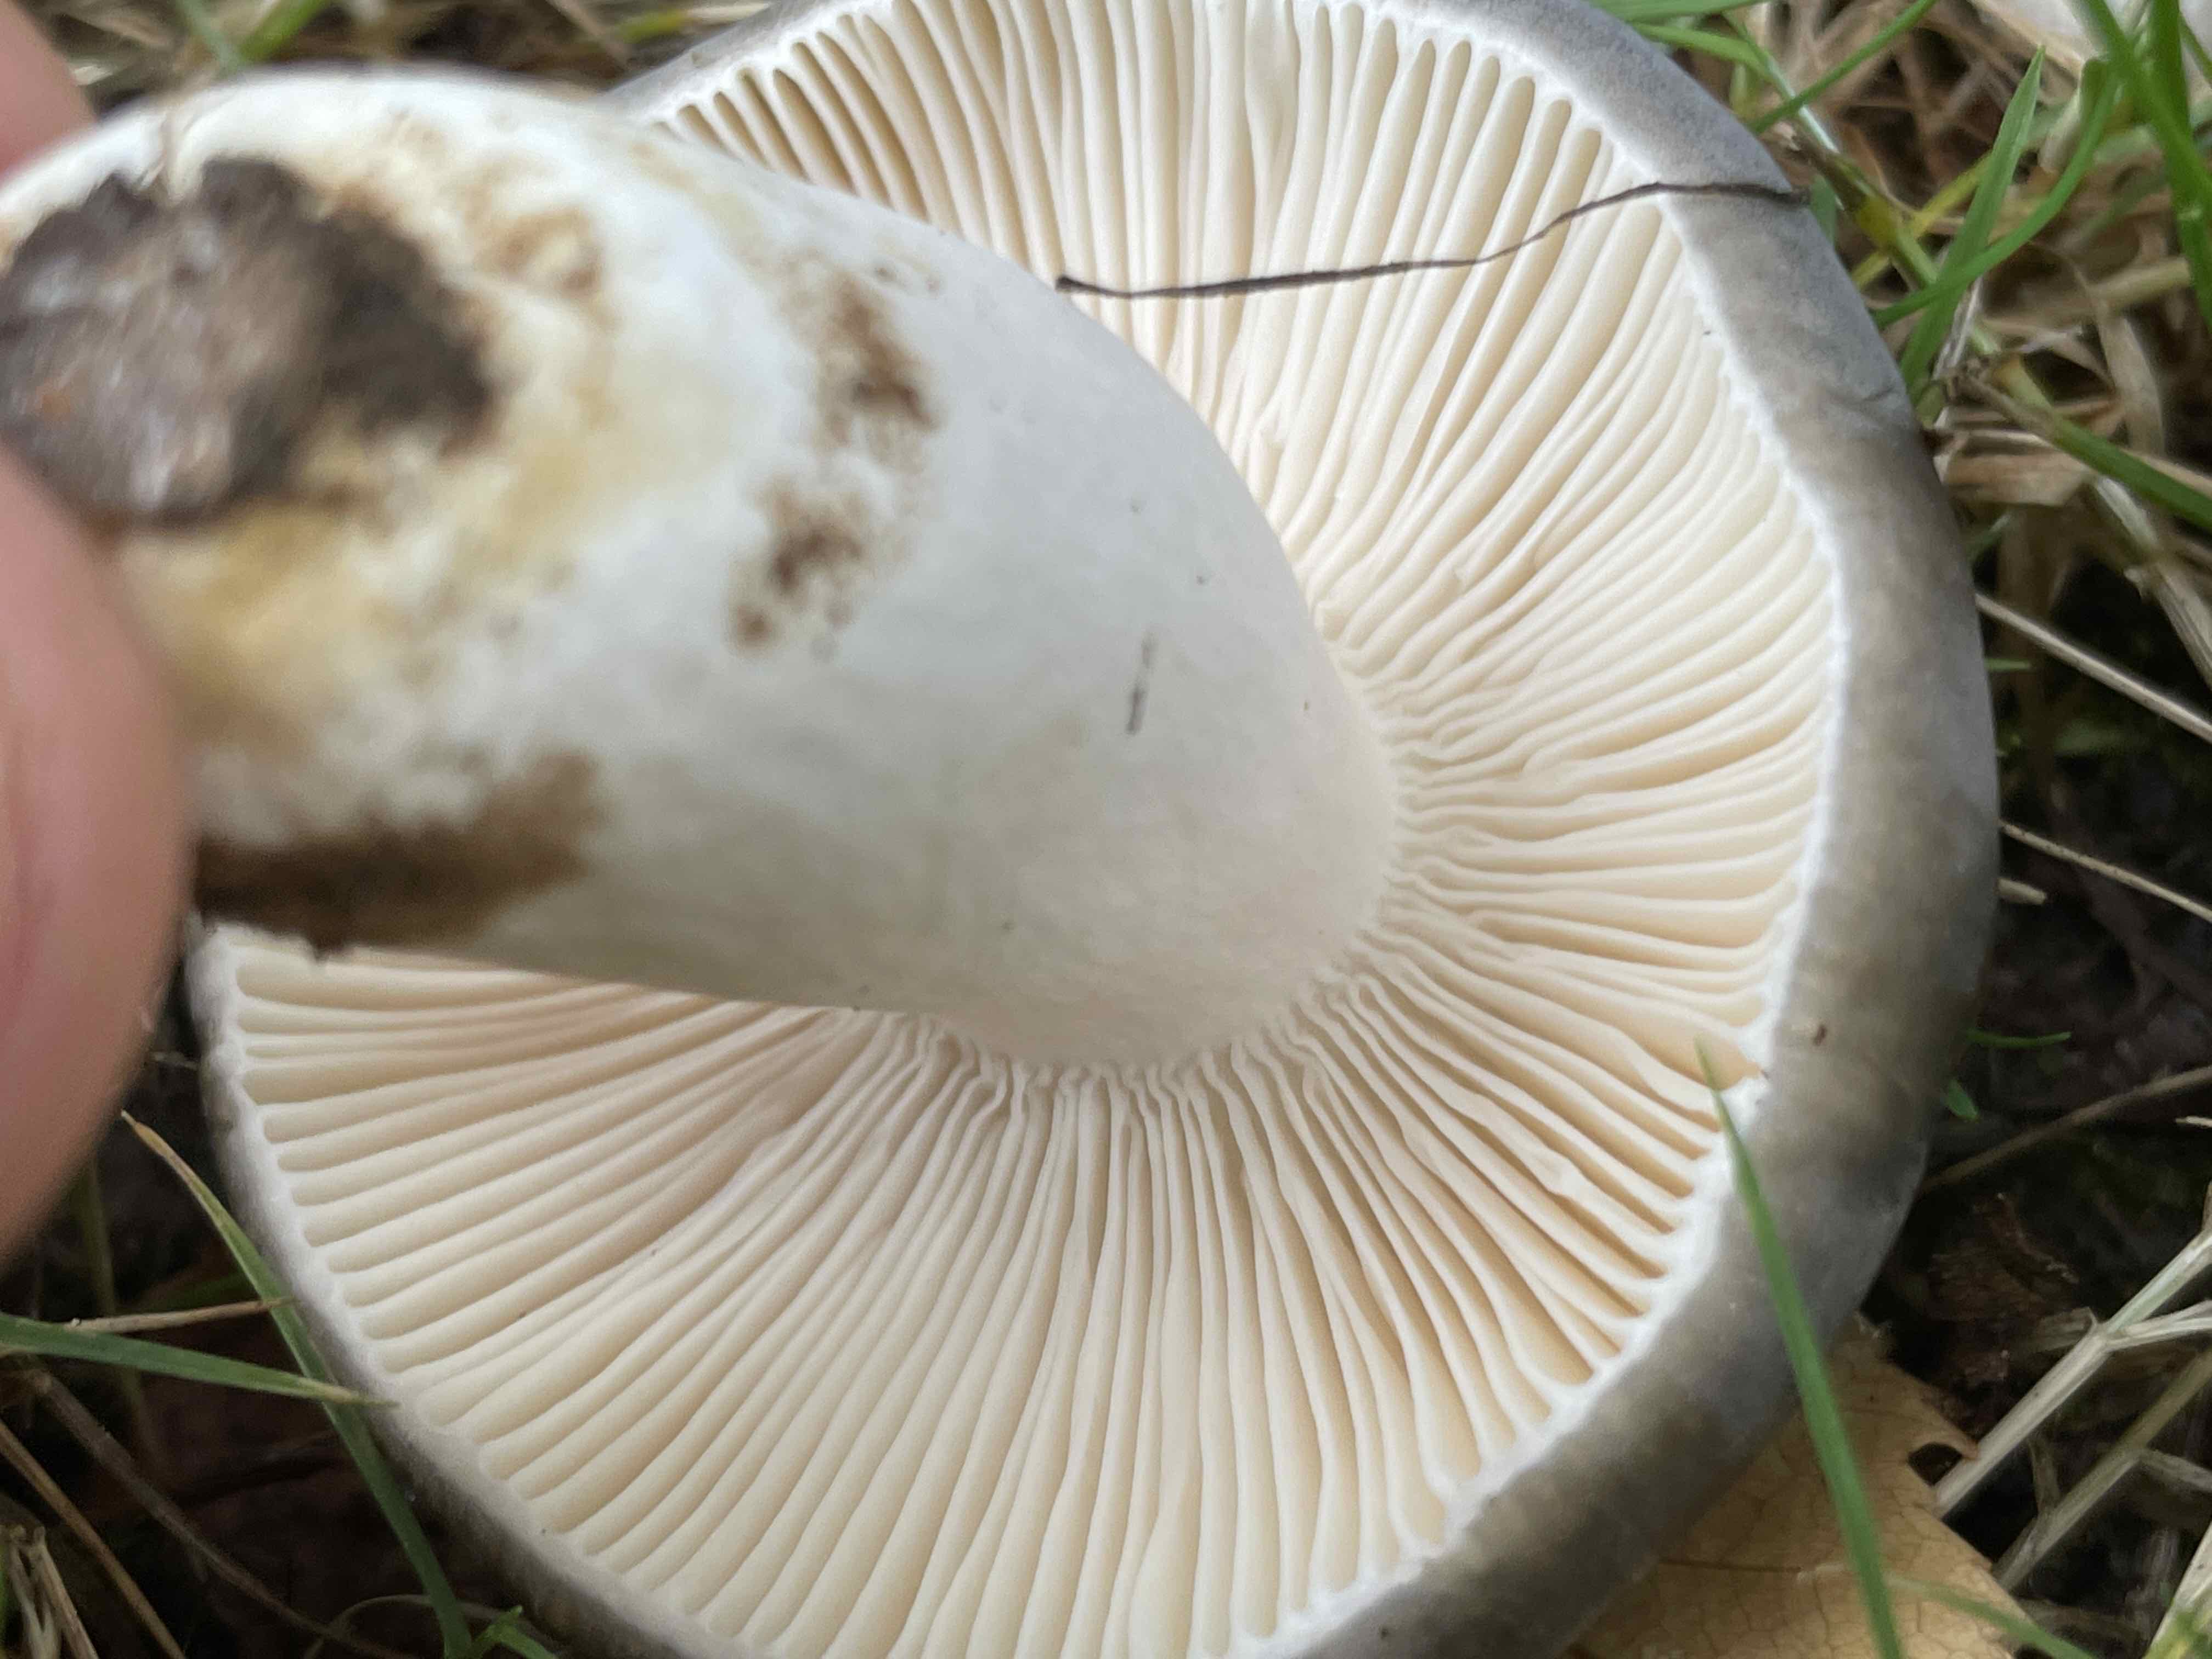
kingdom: Fungi
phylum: Basidiomycota
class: Agaricomycetes
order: Russulales
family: Russulaceae
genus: Russula
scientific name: Russula parazurea
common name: blågrå skørhat
